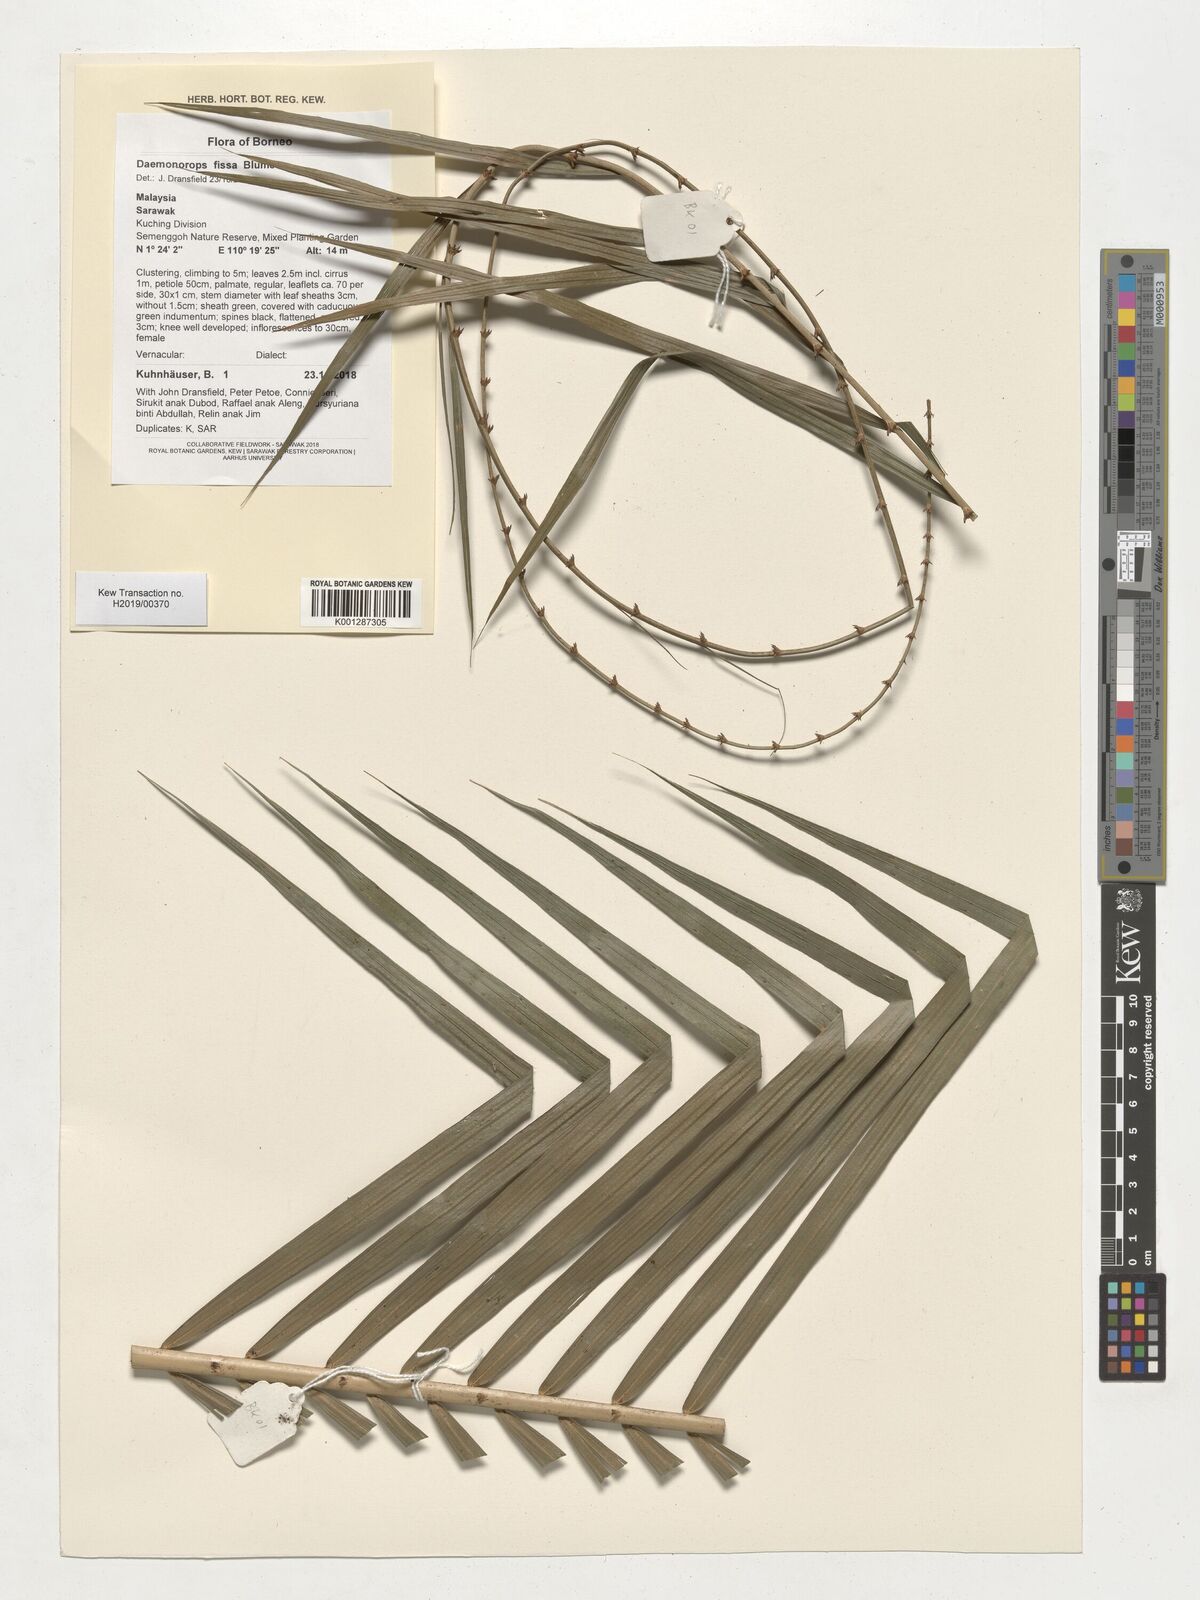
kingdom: Plantae
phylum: Tracheophyta
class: Liliopsida
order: Arecales
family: Arecaceae
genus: Calamus
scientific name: Calamus melanochaetes
